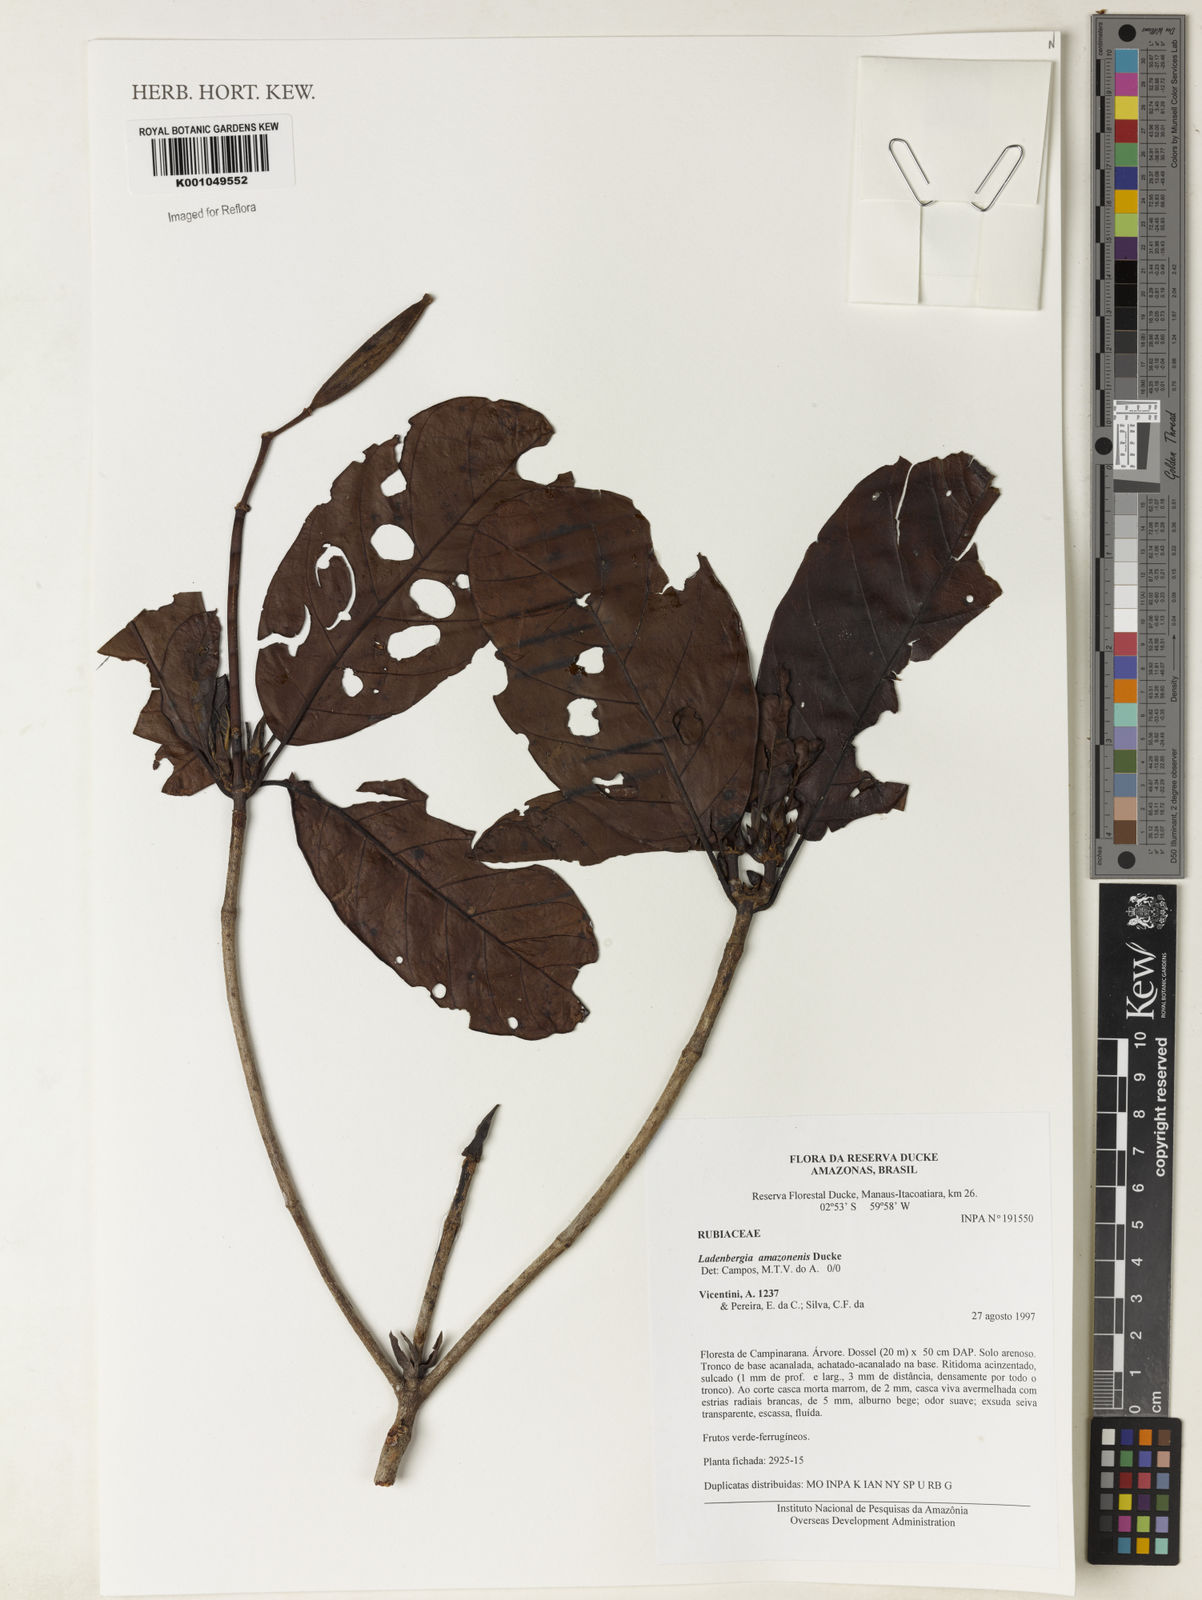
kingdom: Plantae
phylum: Tracheophyta
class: Magnoliopsida
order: Gentianales
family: Rubiaceae
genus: Ladenbergia
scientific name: Ladenbergia amazonensis
